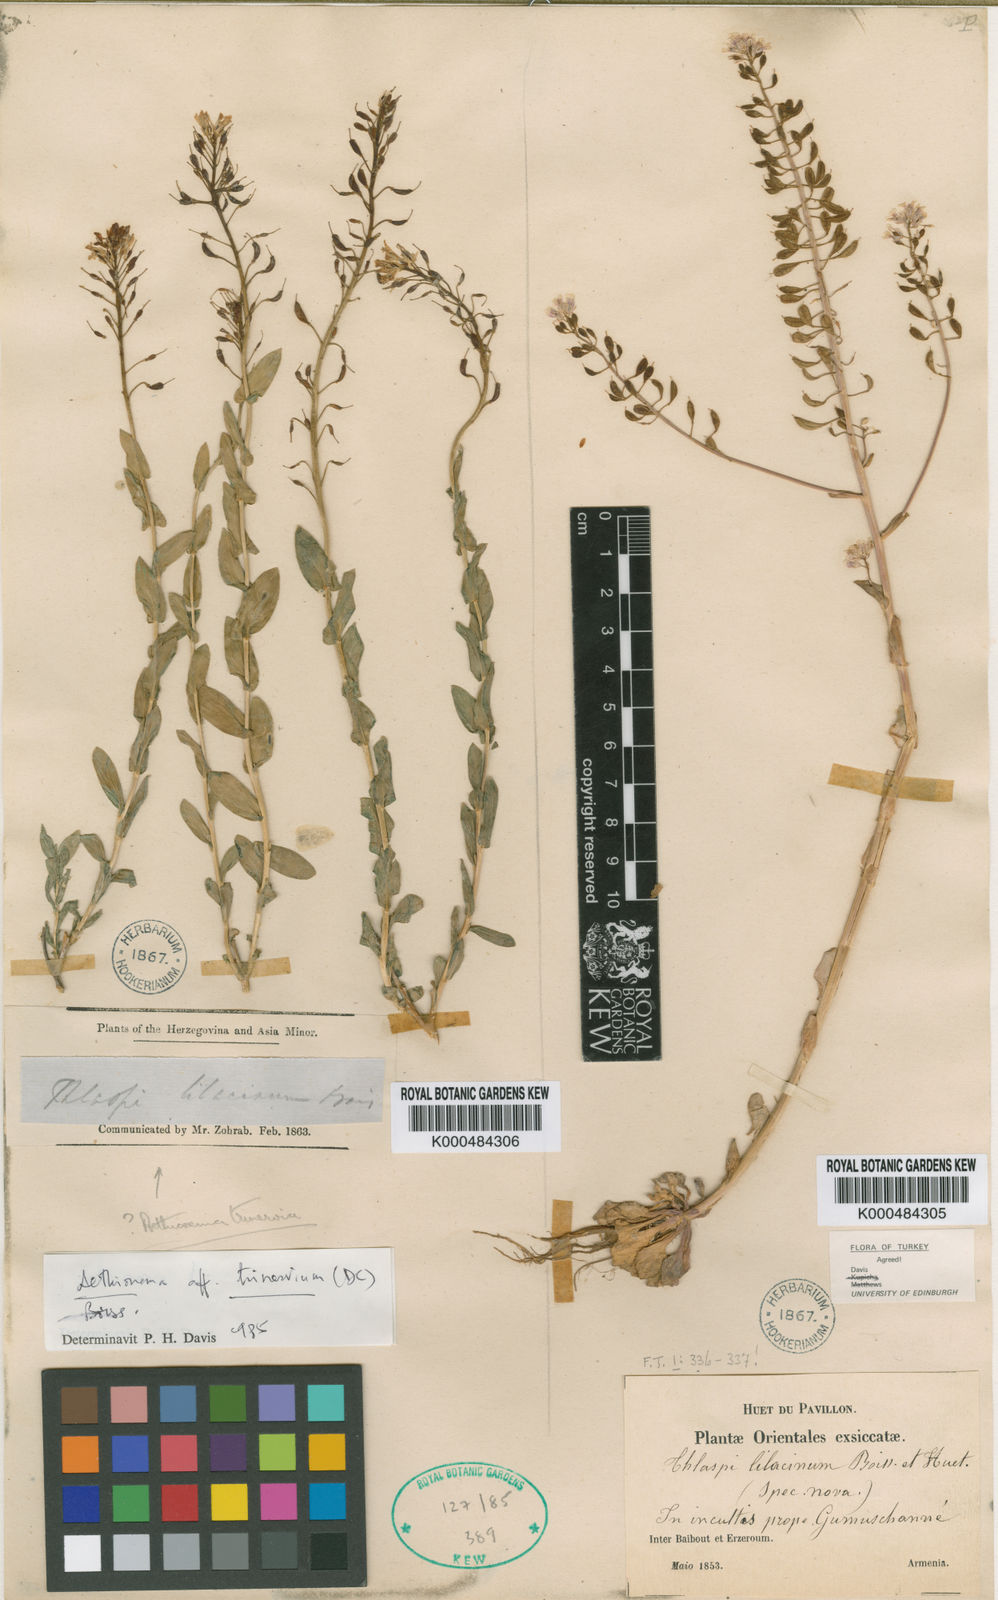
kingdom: Plantae
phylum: Tracheophyta
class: Magnoliopsida
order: Brassicales
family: Brassicaceae
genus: Noccaea
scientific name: Noccaea lilacina
